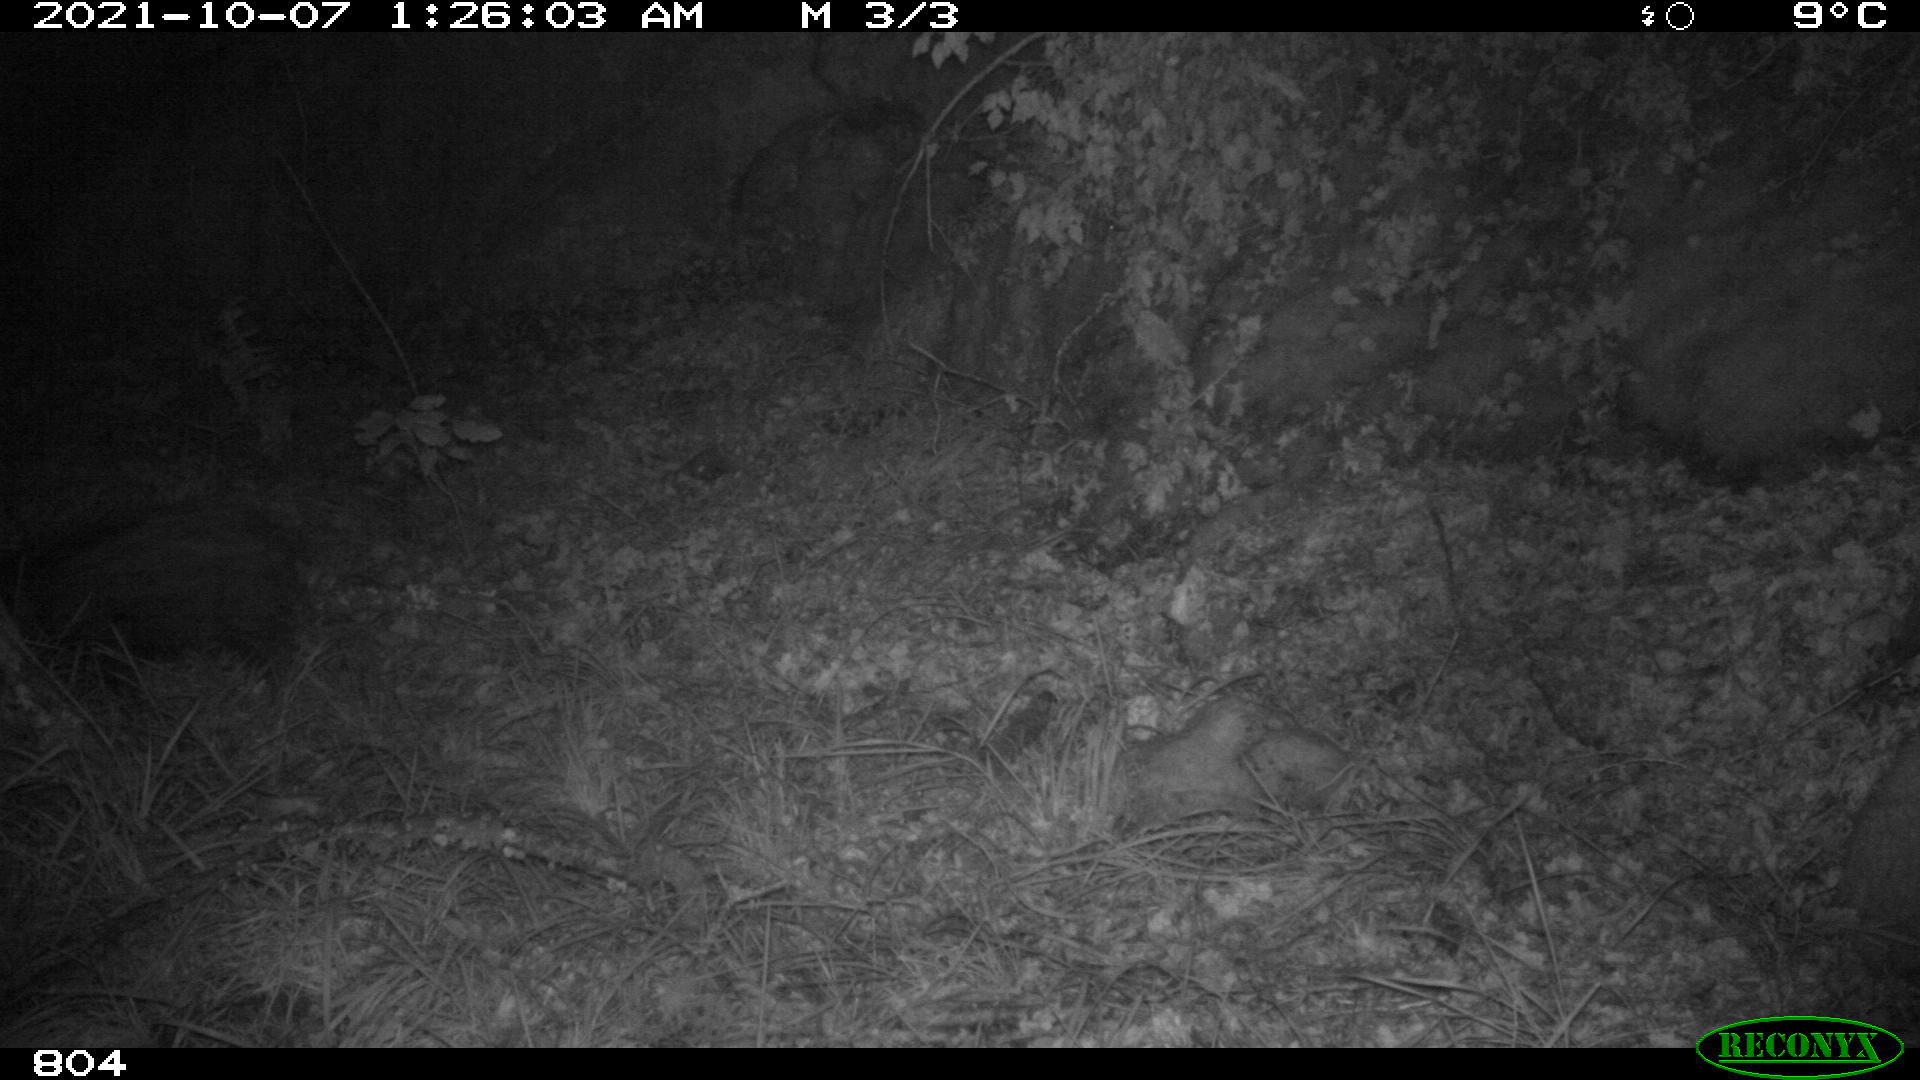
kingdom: Animalia
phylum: Chordata
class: Mammalia
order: Artiodactyla
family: Suidae
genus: Sus
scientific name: Sus scrofa
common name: Wild boar
